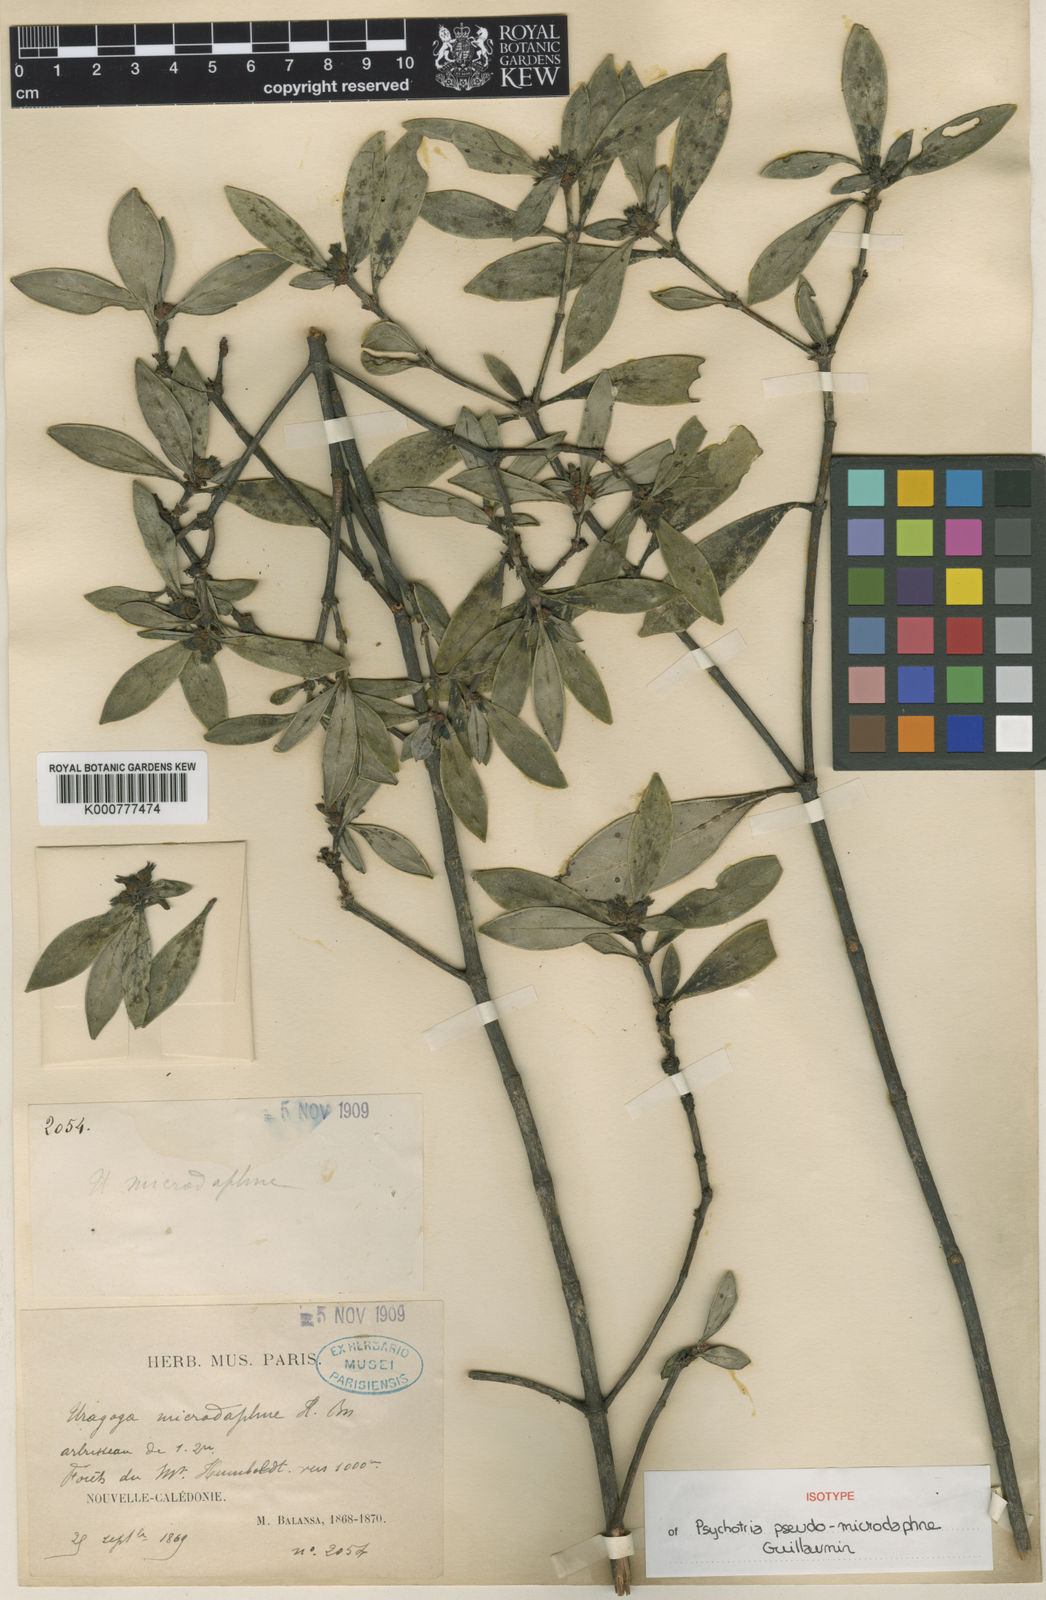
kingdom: Plantae
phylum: Tracheophyta
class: Magnoliopsida
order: Gentianales
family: Rubiaceae
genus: Psychotria
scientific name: Psychotria pseudomicrodaphne
